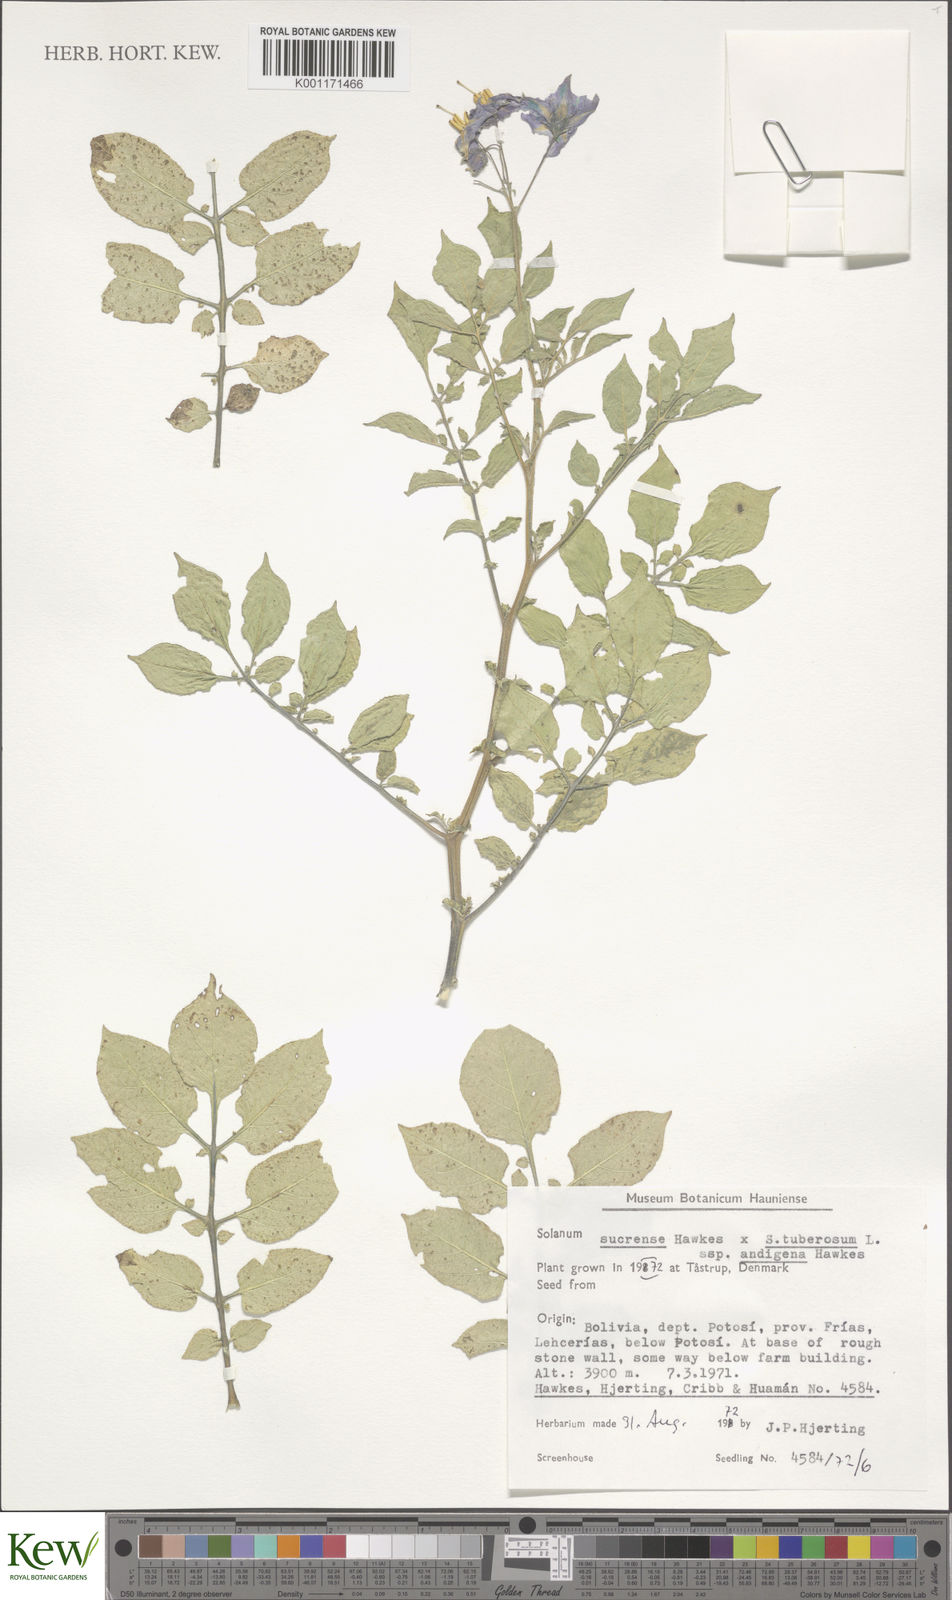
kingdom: Plantae
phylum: Tracheophyta
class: Magnoliopsida
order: Solanales
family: Solanaceae
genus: Solanum
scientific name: Solanum tuberosum
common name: Potato
